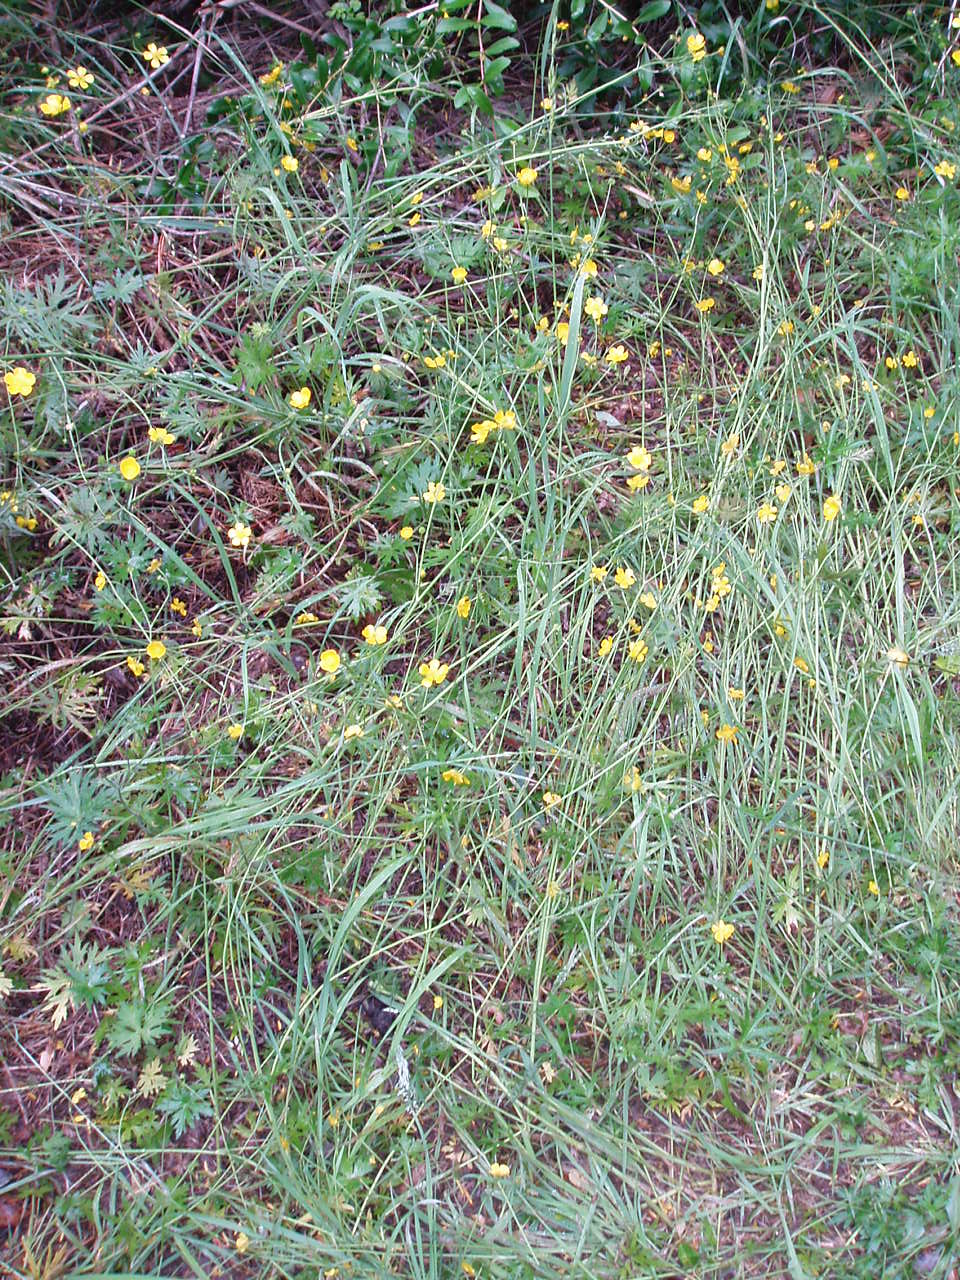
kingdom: Plantae
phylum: Tracheophyta
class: Magnoliopsida
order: Ranunculales
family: Ranunculaceae
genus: Ranunculus
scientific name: Ranunculus acris
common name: Meadow buttercup
